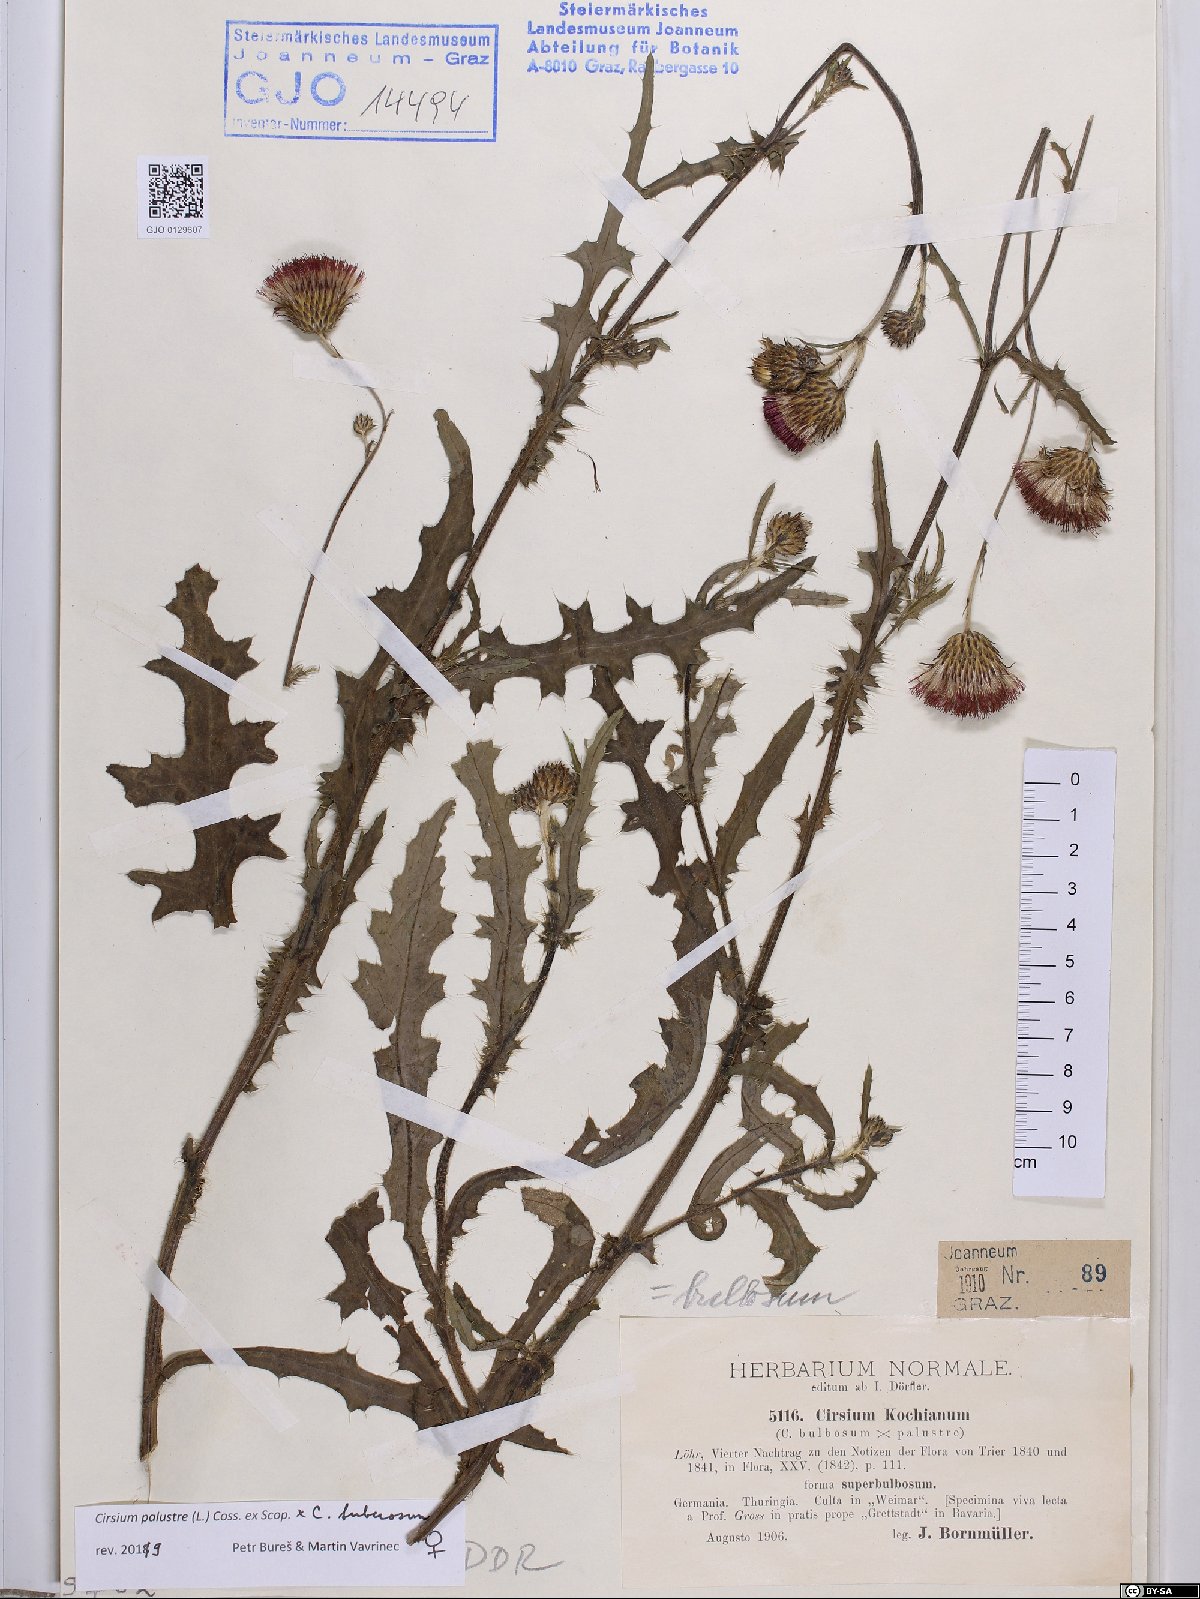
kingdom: Plantae
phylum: Tracheophyta
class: Magnoliopsida
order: Asterales
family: Asteraceae
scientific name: Asteraceae
